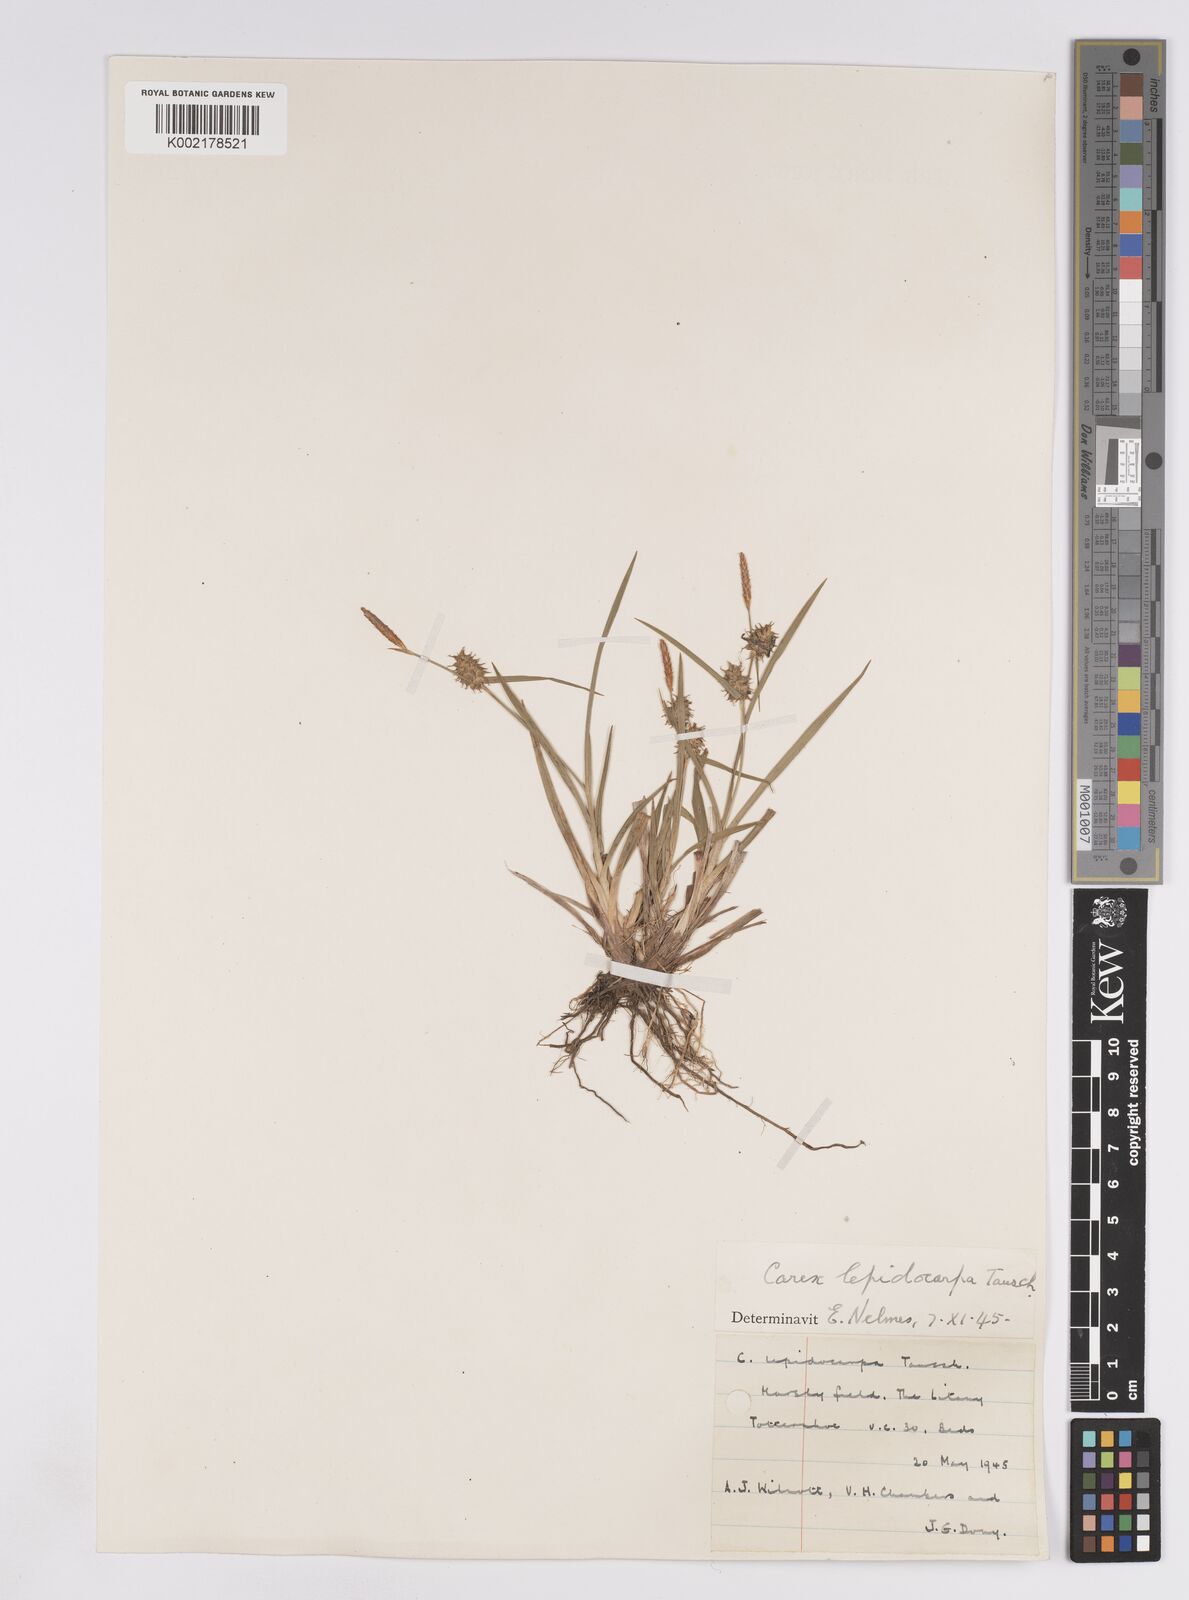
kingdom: Plantae
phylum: Tracheophyta
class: Liliopsida
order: Poales
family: Cyperaceae
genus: Carex
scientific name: Carex lepidocarpa
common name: Long-stalked yellow-sedge
